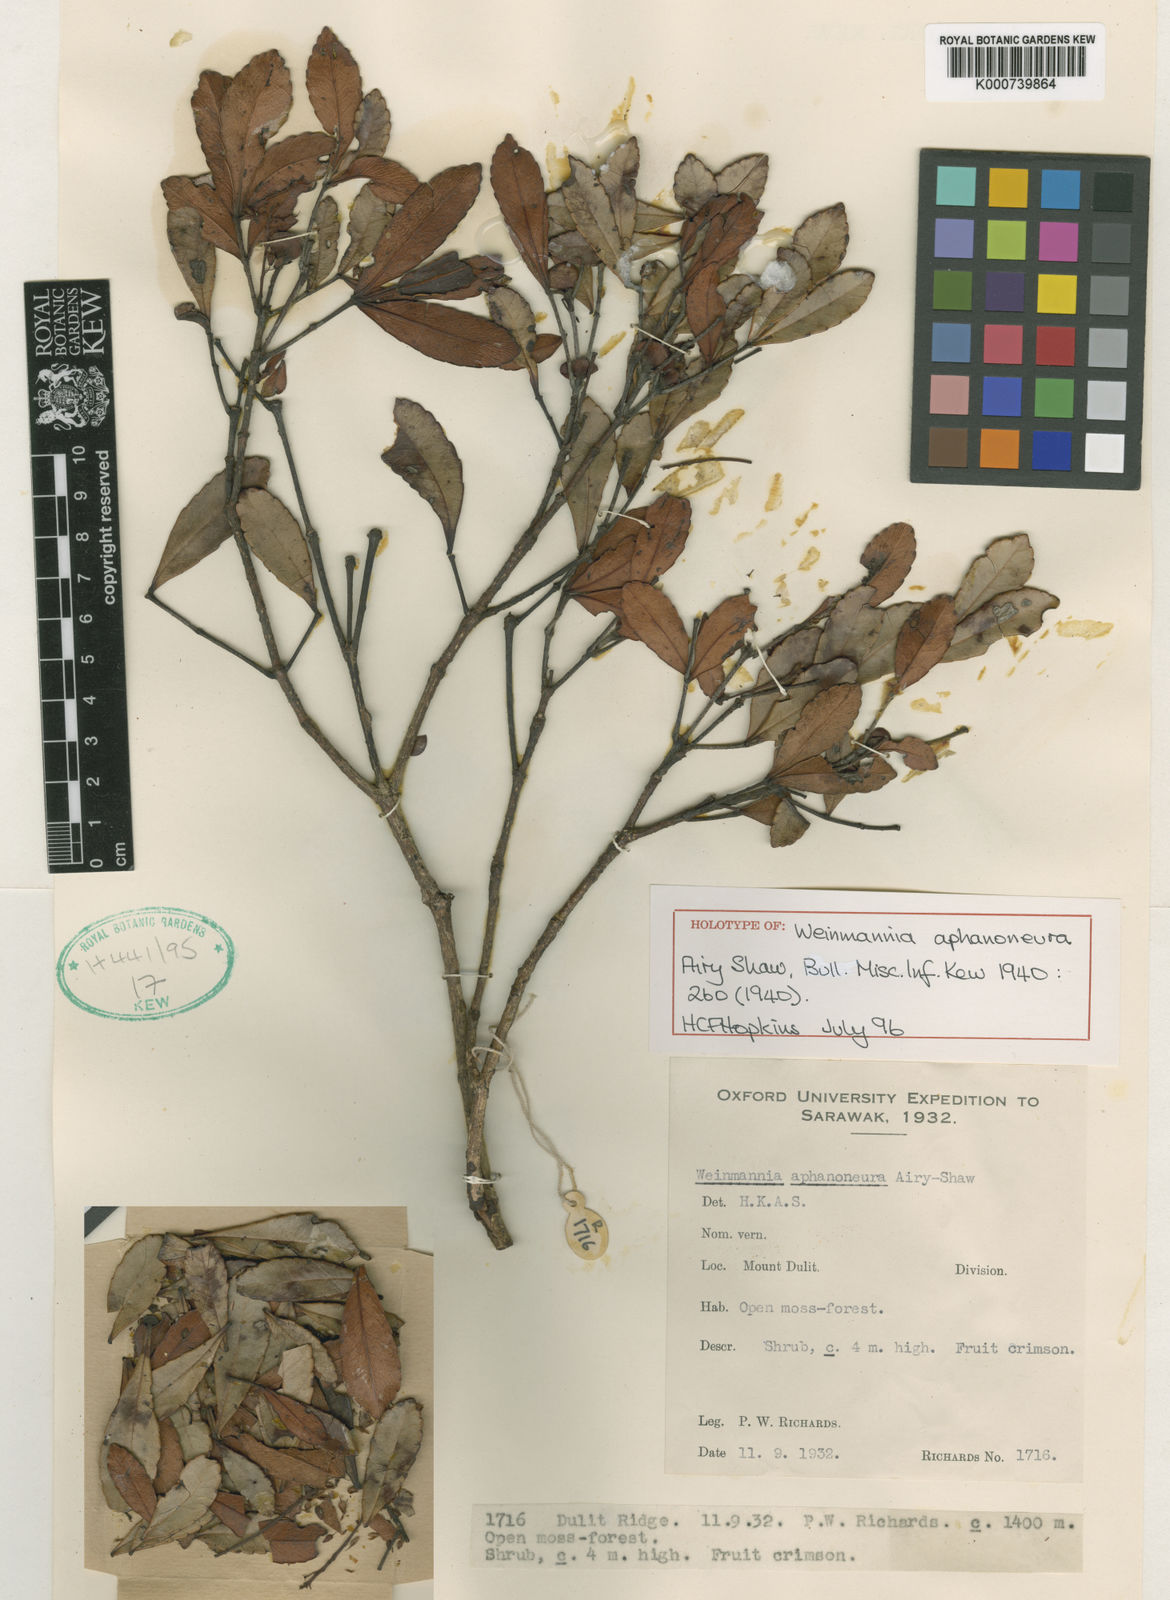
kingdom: Plantae
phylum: Tracheophyta
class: Magnoliopsida
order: Oxalidales
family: Cunoniaceae
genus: Pterophylla
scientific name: Pterophylla aphanoneura
